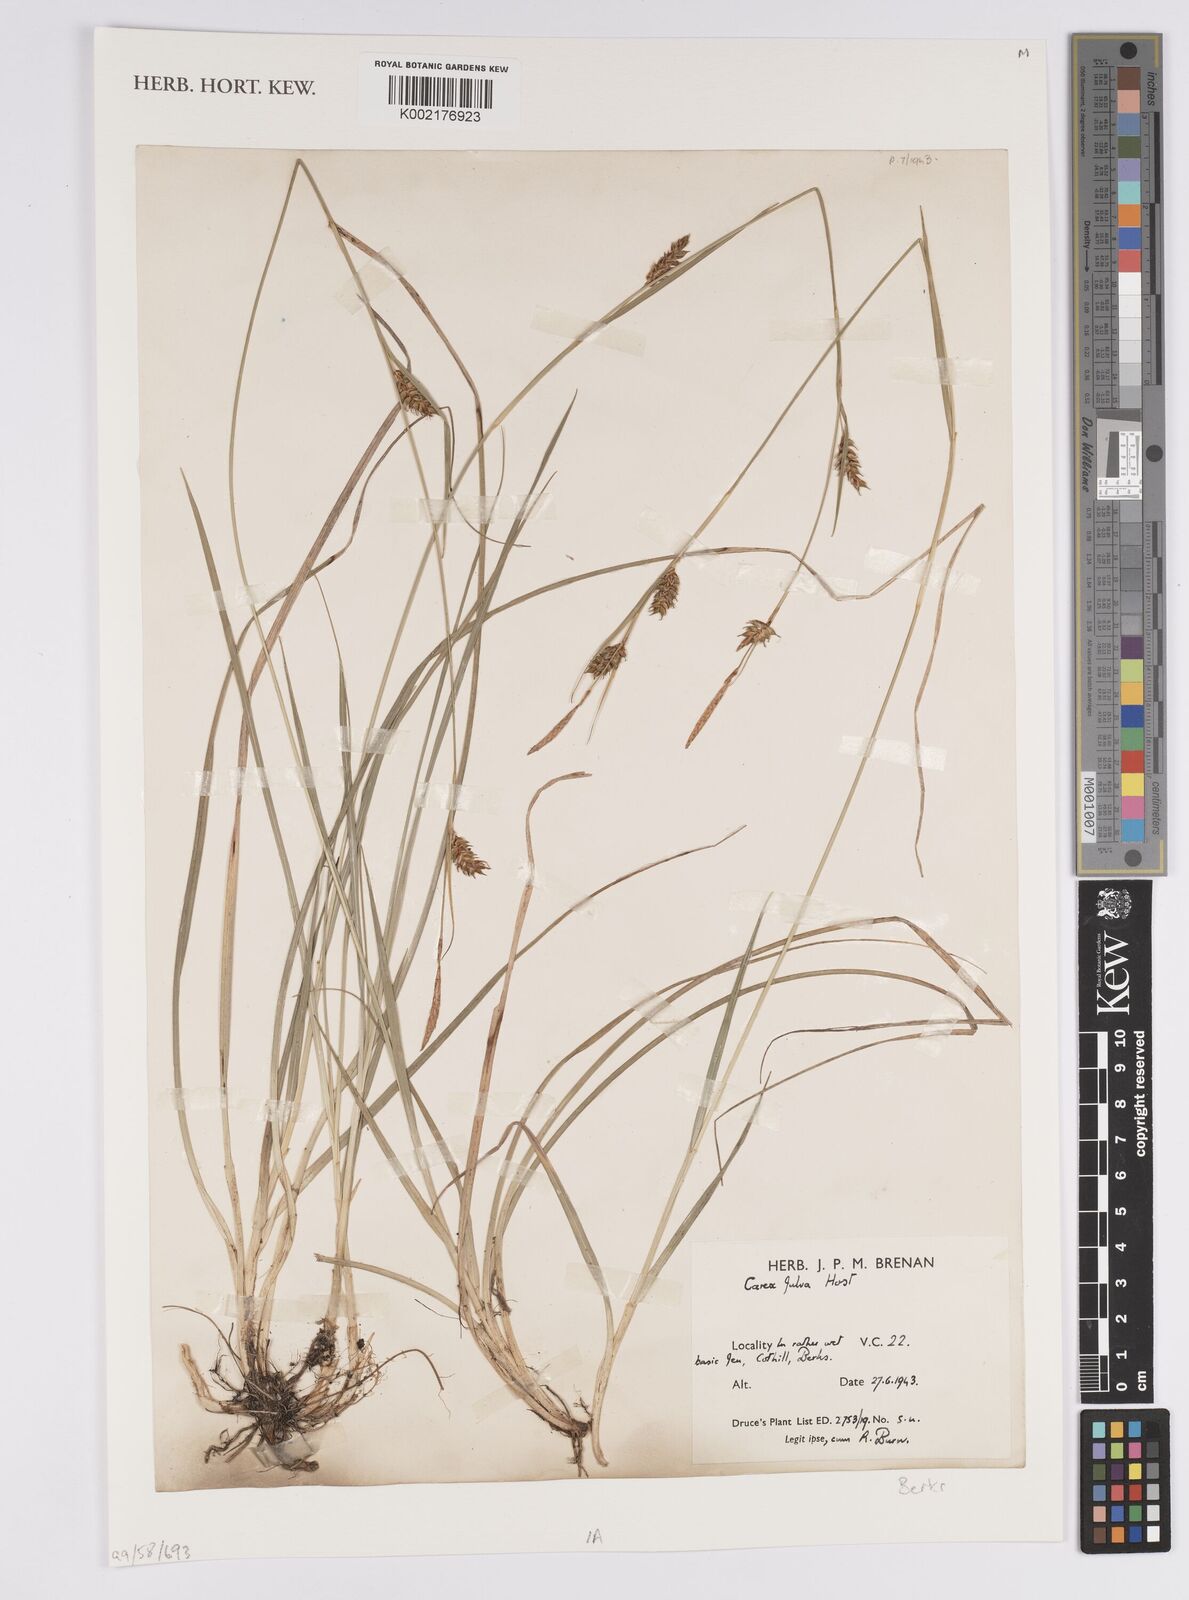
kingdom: Plantae
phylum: Tracheophyta
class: Liliopsida
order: Poales
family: Cyperaceae
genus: Carex
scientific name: Carex hostiana
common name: Tawny sedge
